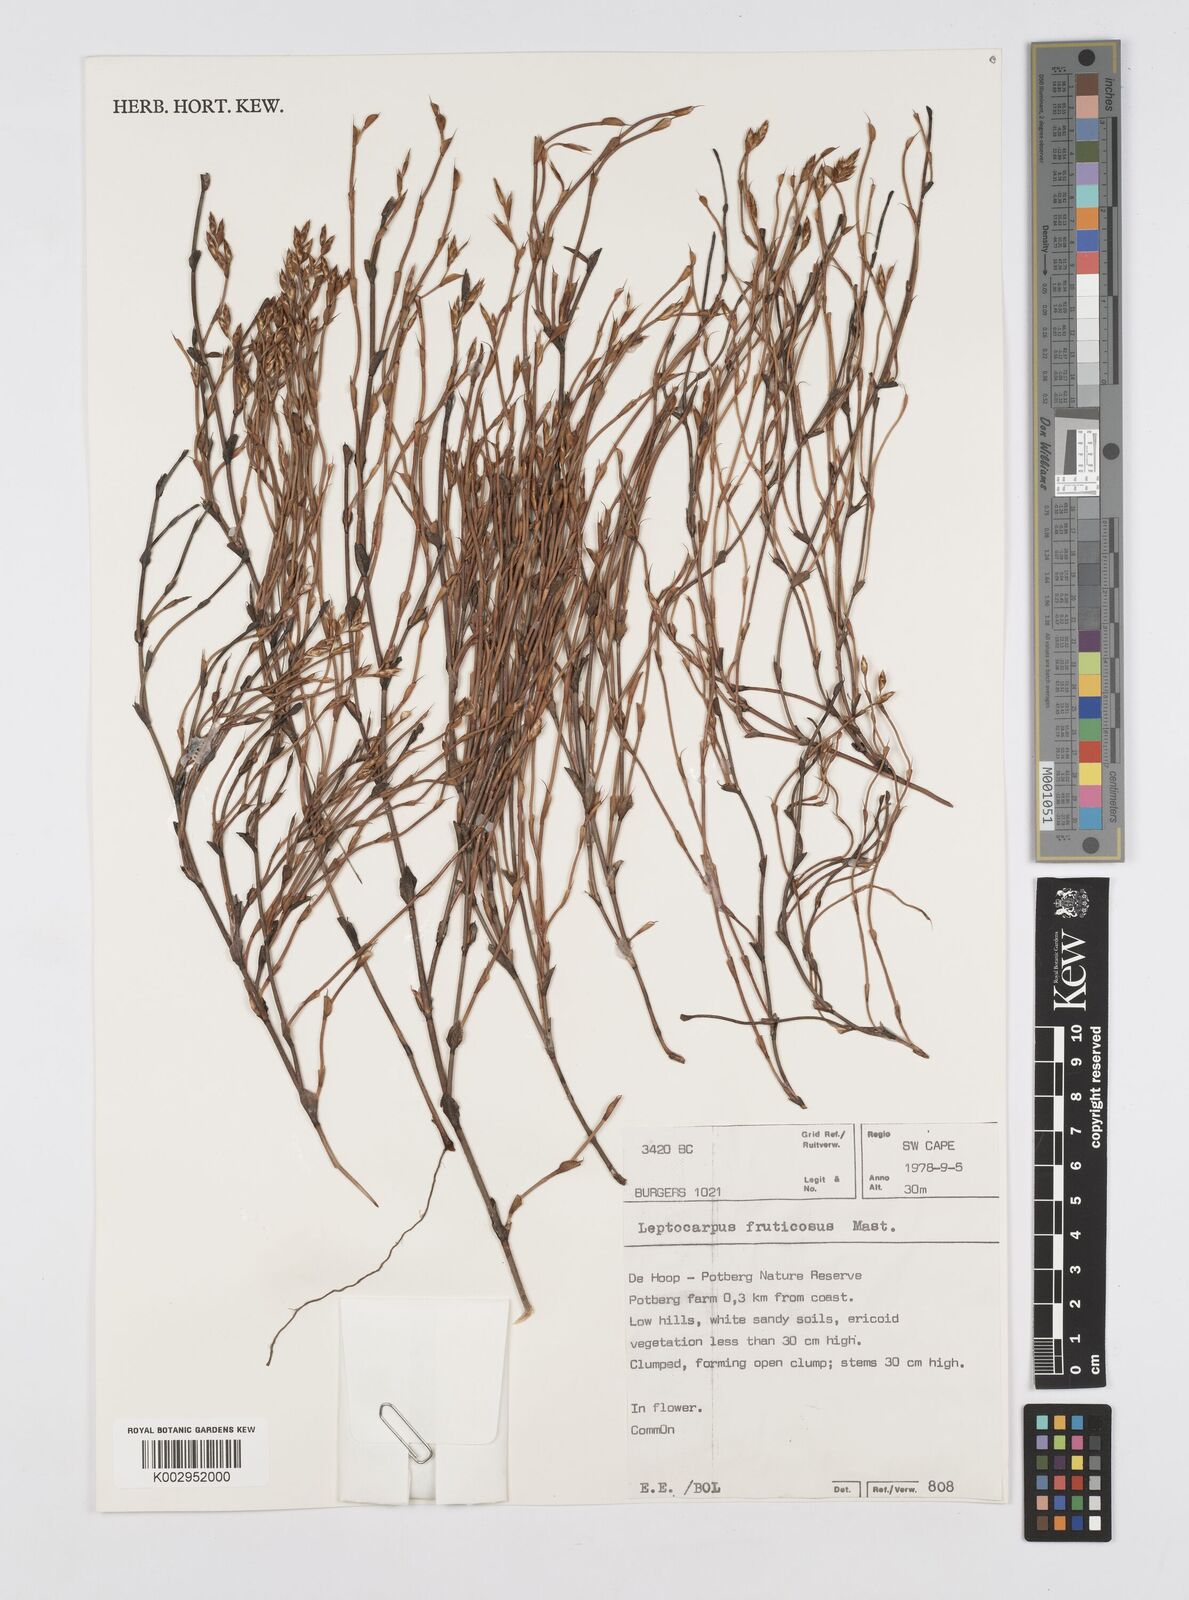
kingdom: Plantae
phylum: Tracheophyta
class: Liliopsida
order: Poales
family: Restionaceae
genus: Rhodocoma
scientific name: Rhodocoma fruticosa
